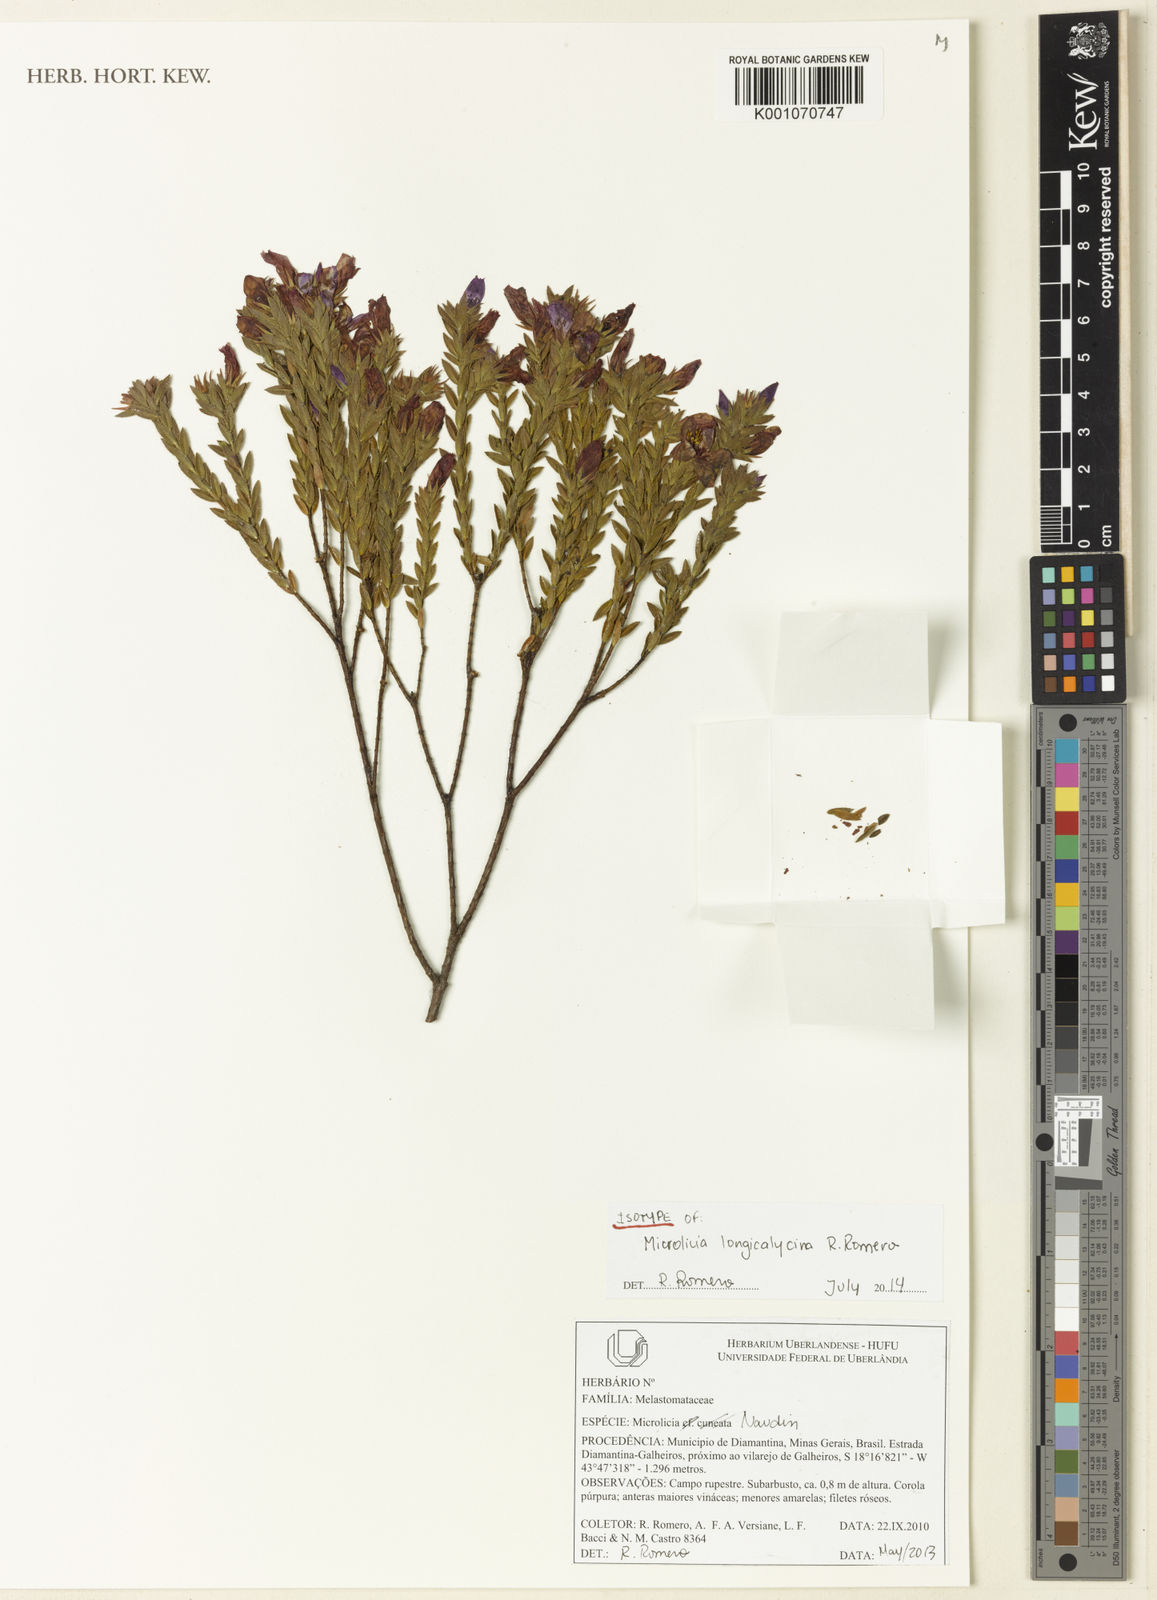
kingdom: Plantae
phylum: Tracheophyta
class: Magnoliopsida
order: Myrtales
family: Melastomataceae
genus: Microlicia
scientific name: Microlicia longicalycina
